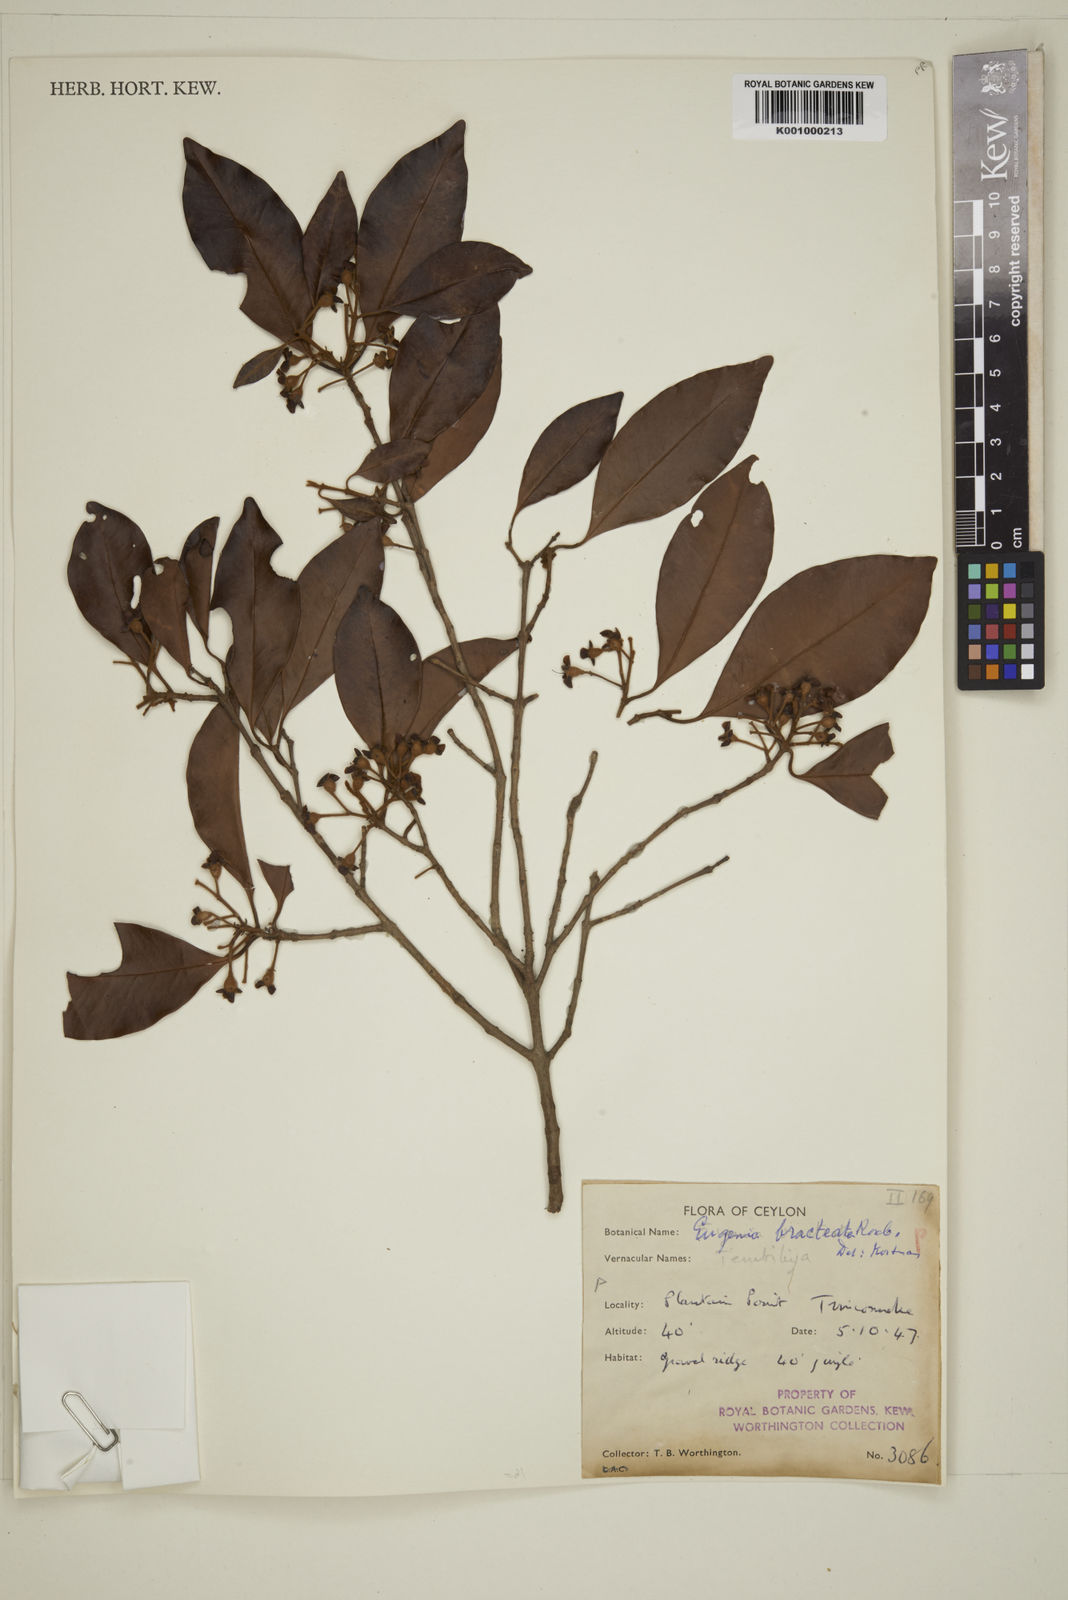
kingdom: Plantae
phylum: Tracheophyta
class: Magnoliopsida
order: Myrtales
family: Myrtaceae
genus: Eugenia
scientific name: Eugenia pseudopsidium
